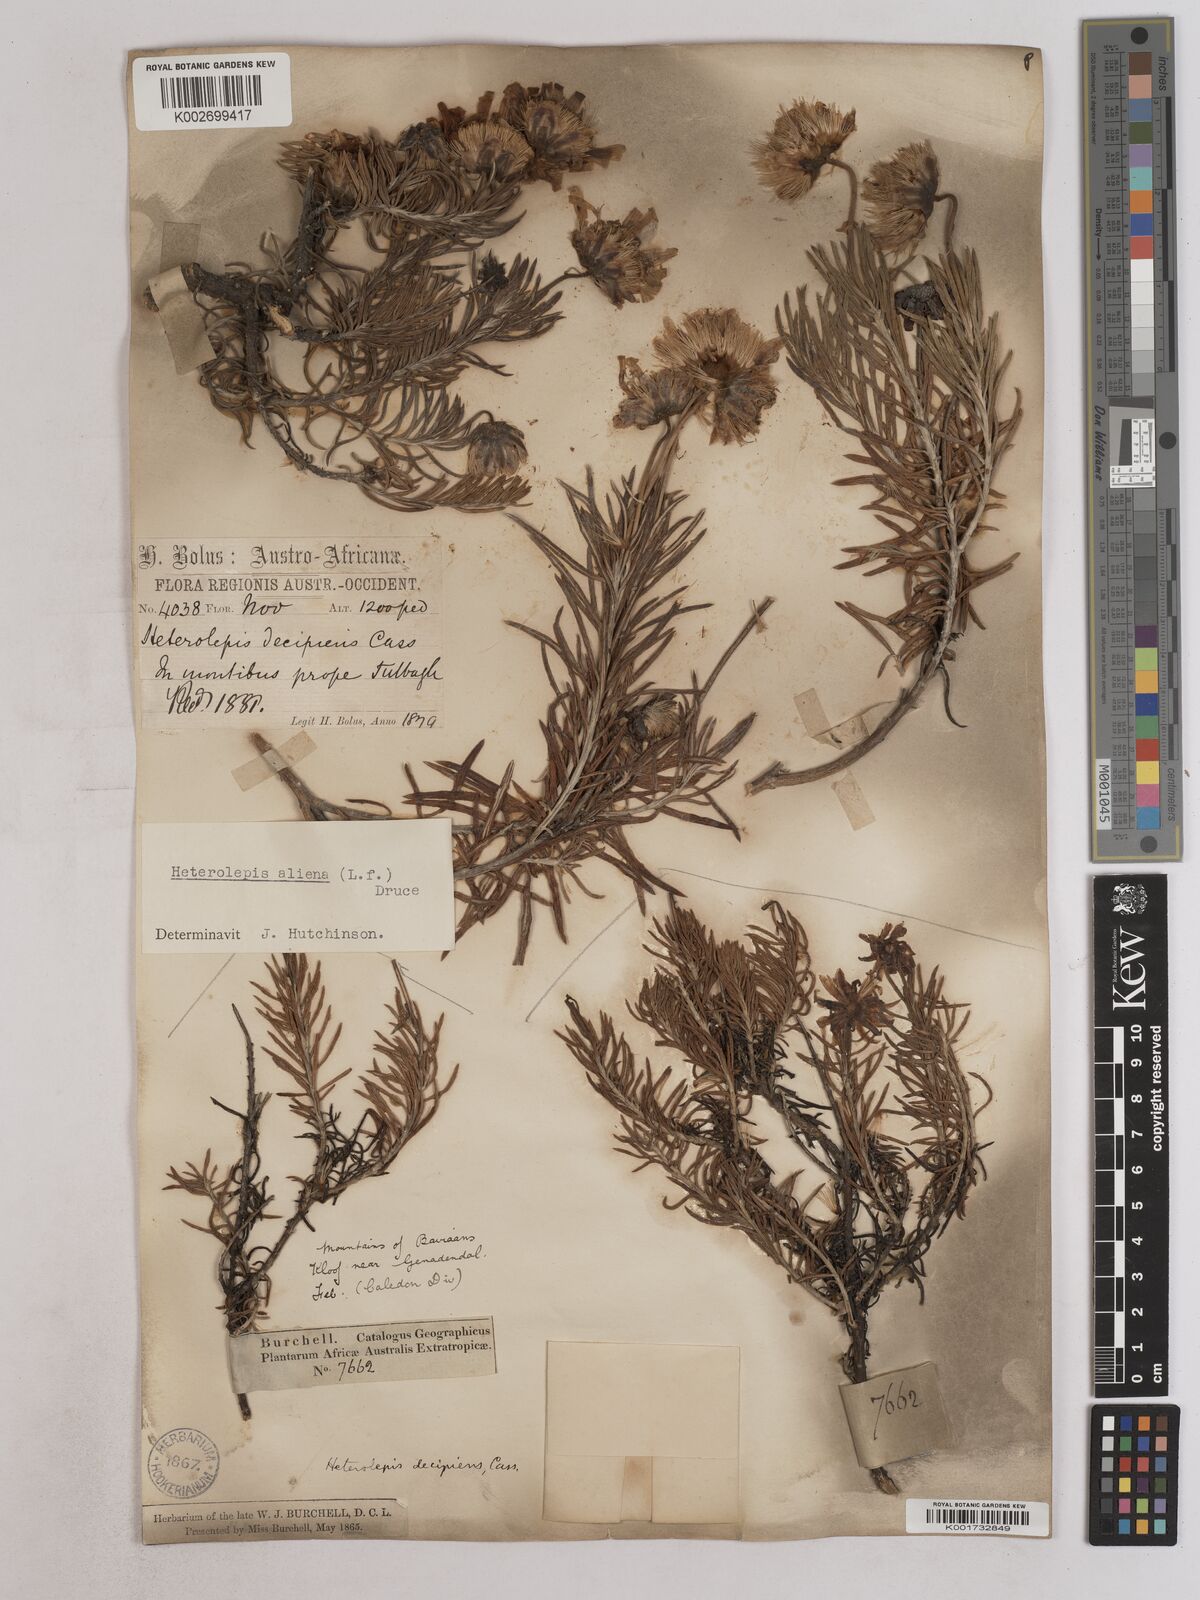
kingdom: Plantae
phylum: Tracheophyta
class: Magnoliopsida
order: Asterales
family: Asteraceae
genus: Heterolepis
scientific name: Heterolepis aliena
